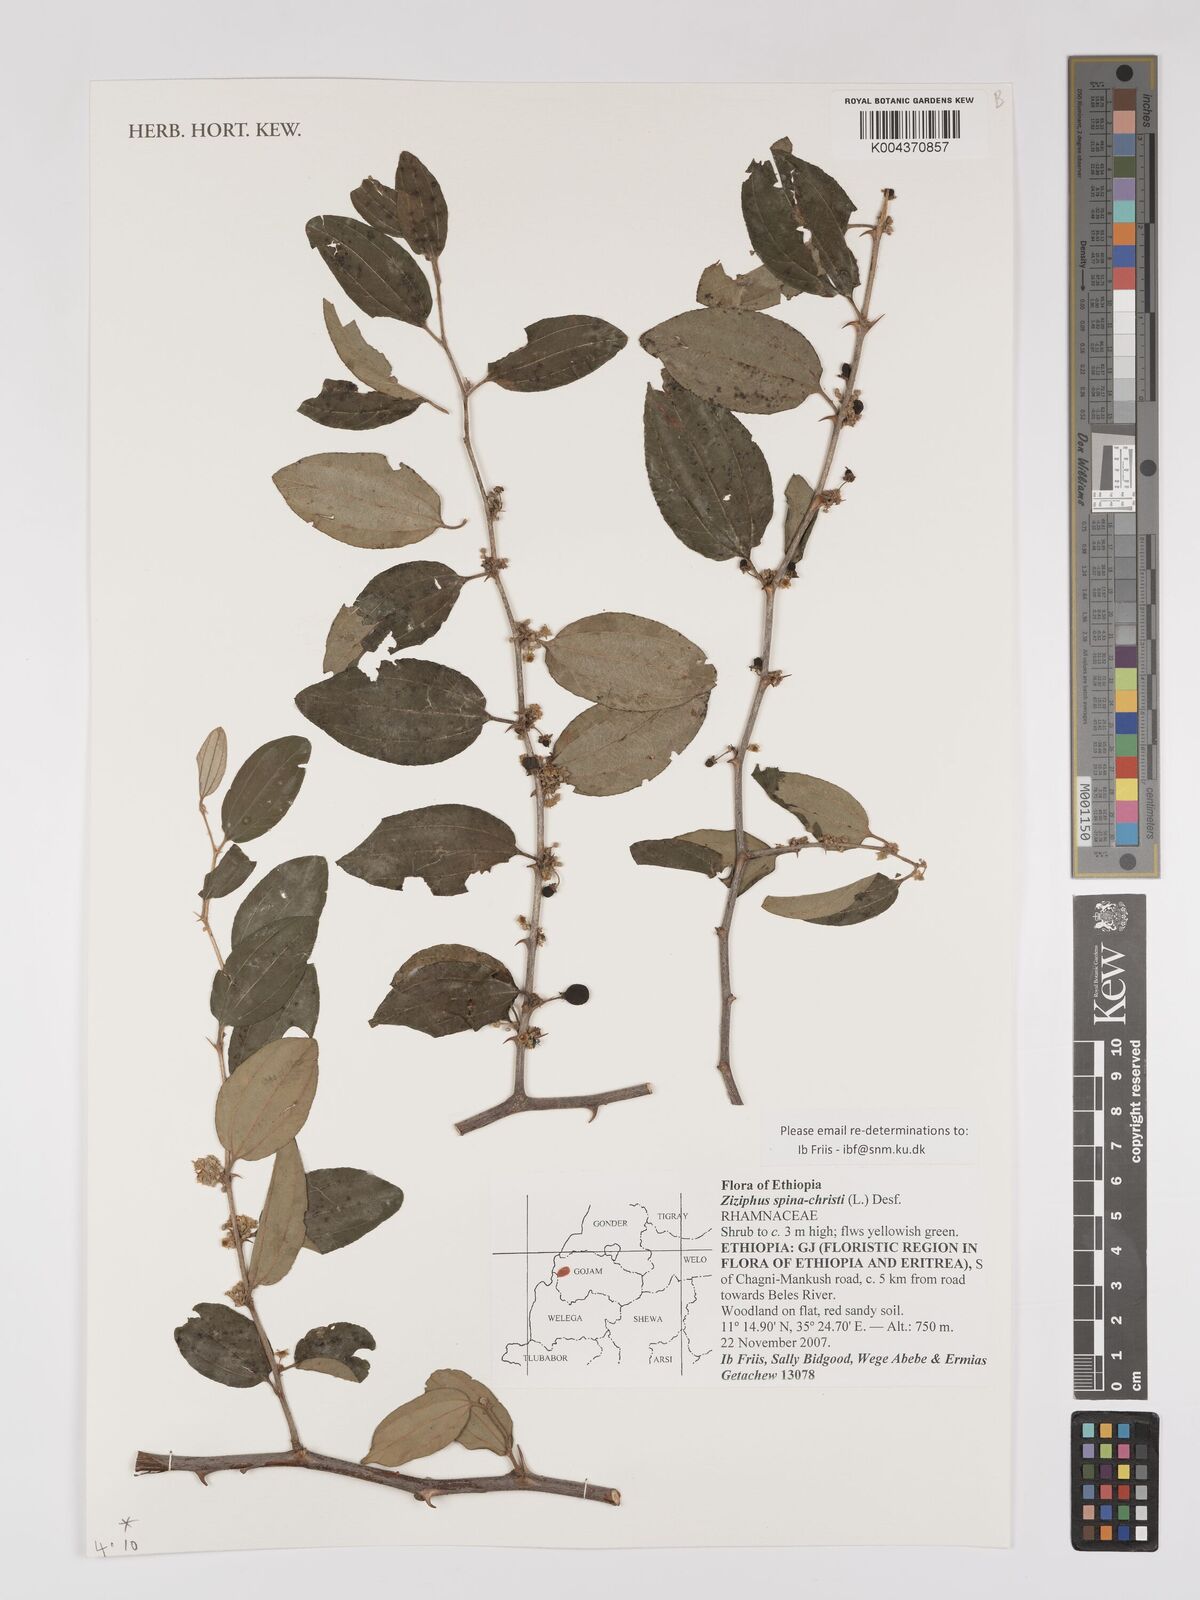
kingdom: Plantae
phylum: Tracheophyta
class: Magnoliopsida
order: Rosales
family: Rhamnaceae
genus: Ziziphus
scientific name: Ziziphus spina-christi
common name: Syrian christ-thorn
